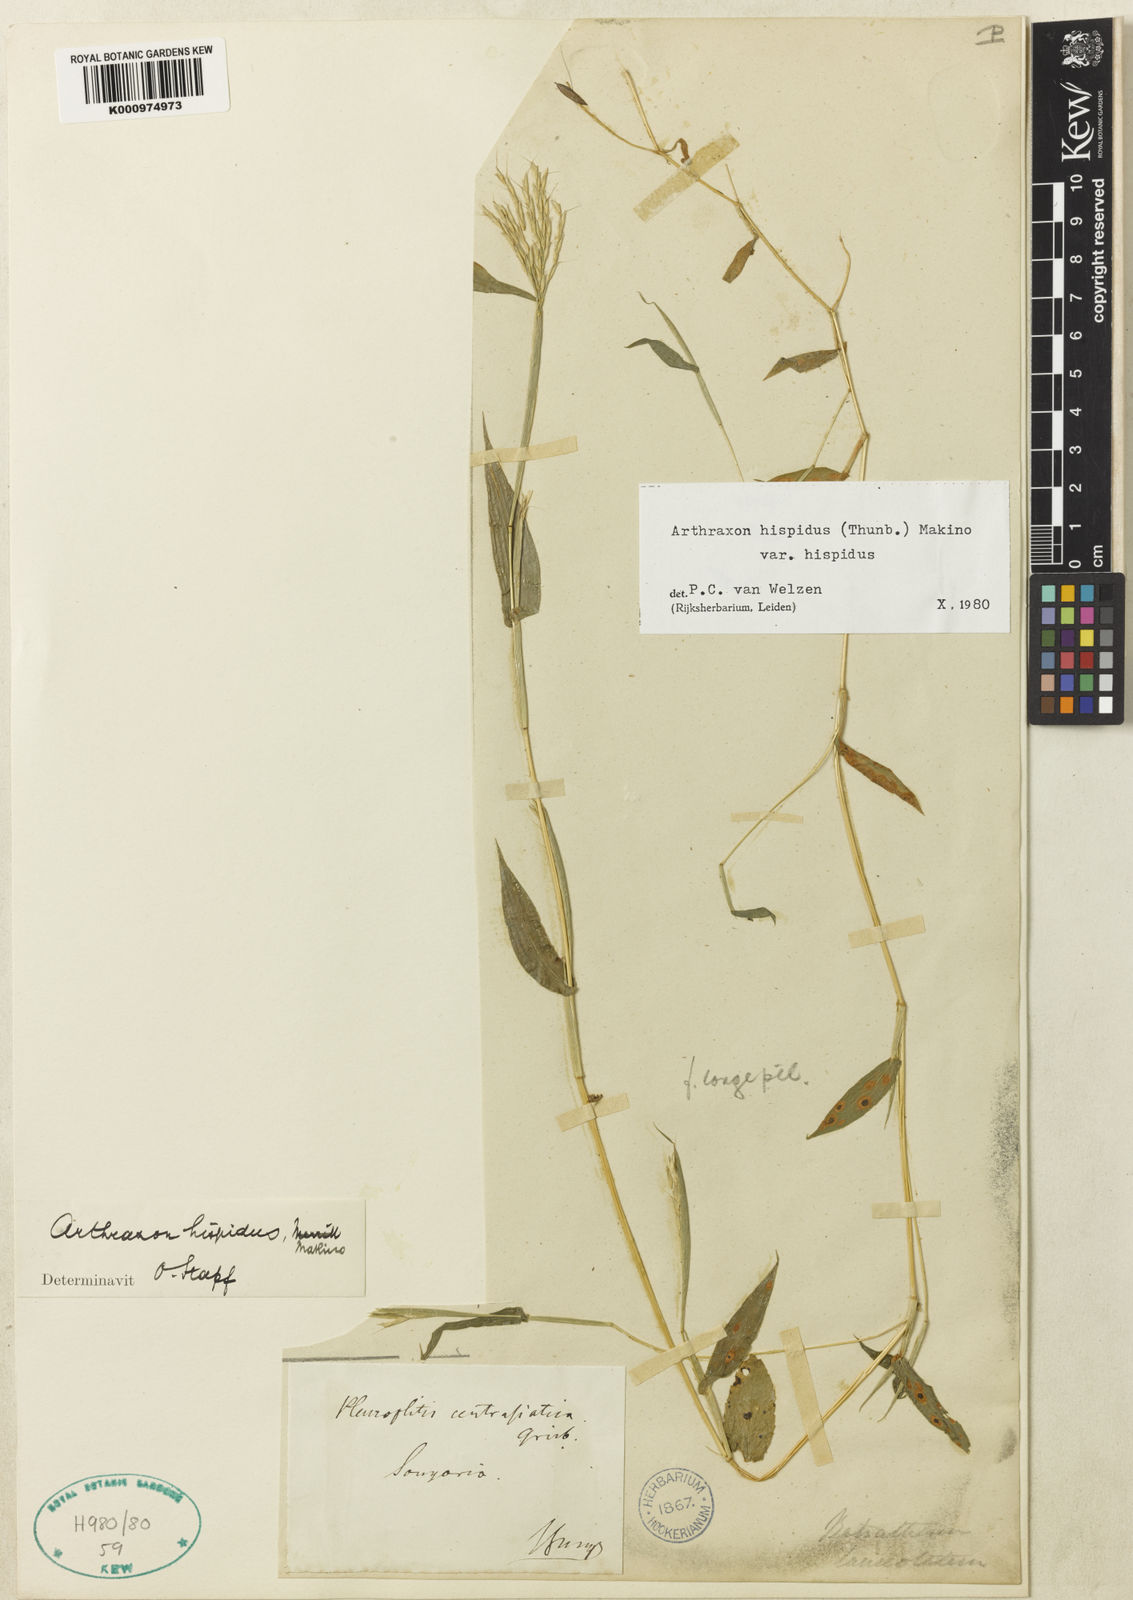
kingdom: Plantae
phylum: Tracheophyta
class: Liliopsida
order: Poales
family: Poaceae
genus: Arthraxon
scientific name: Arthraxon hispidus
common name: Small carpgrass
